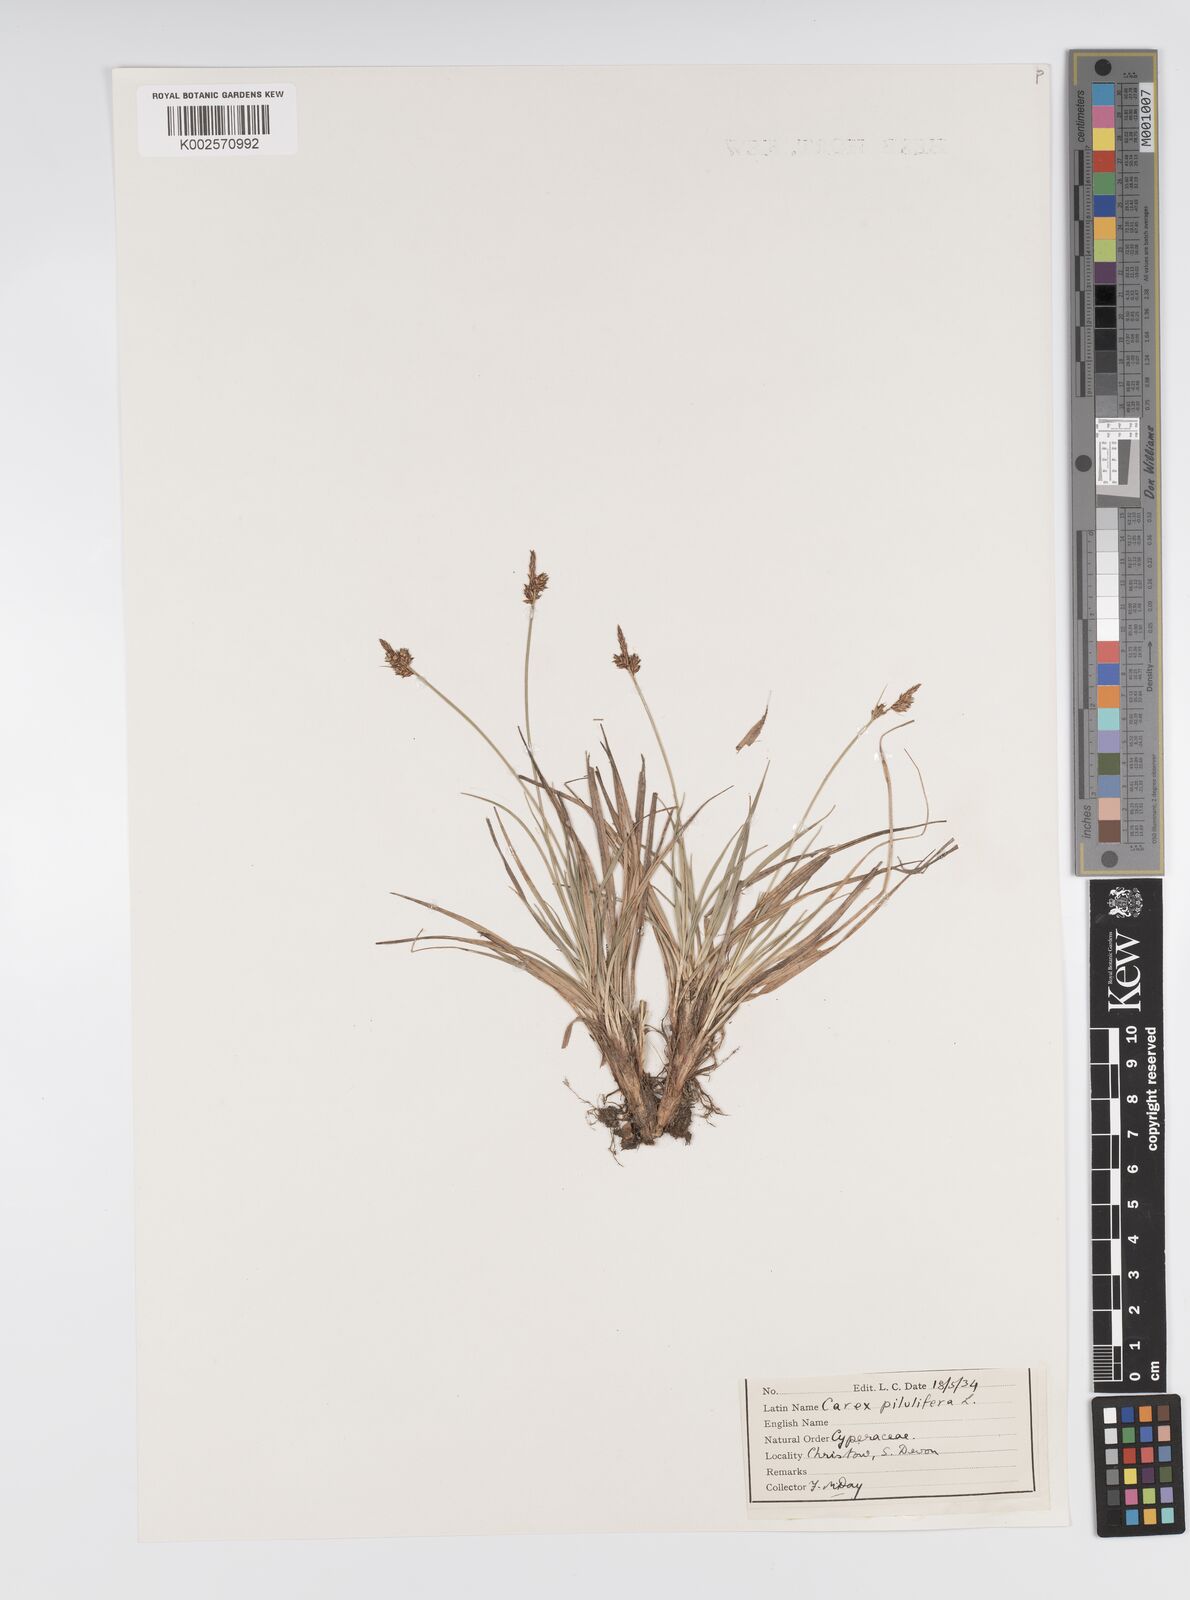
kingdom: Plantae
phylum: Tracheophyta
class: Liliopsida
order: Poales
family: Cyperaceae
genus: Carex
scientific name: Carex praecox
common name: Early sedge
